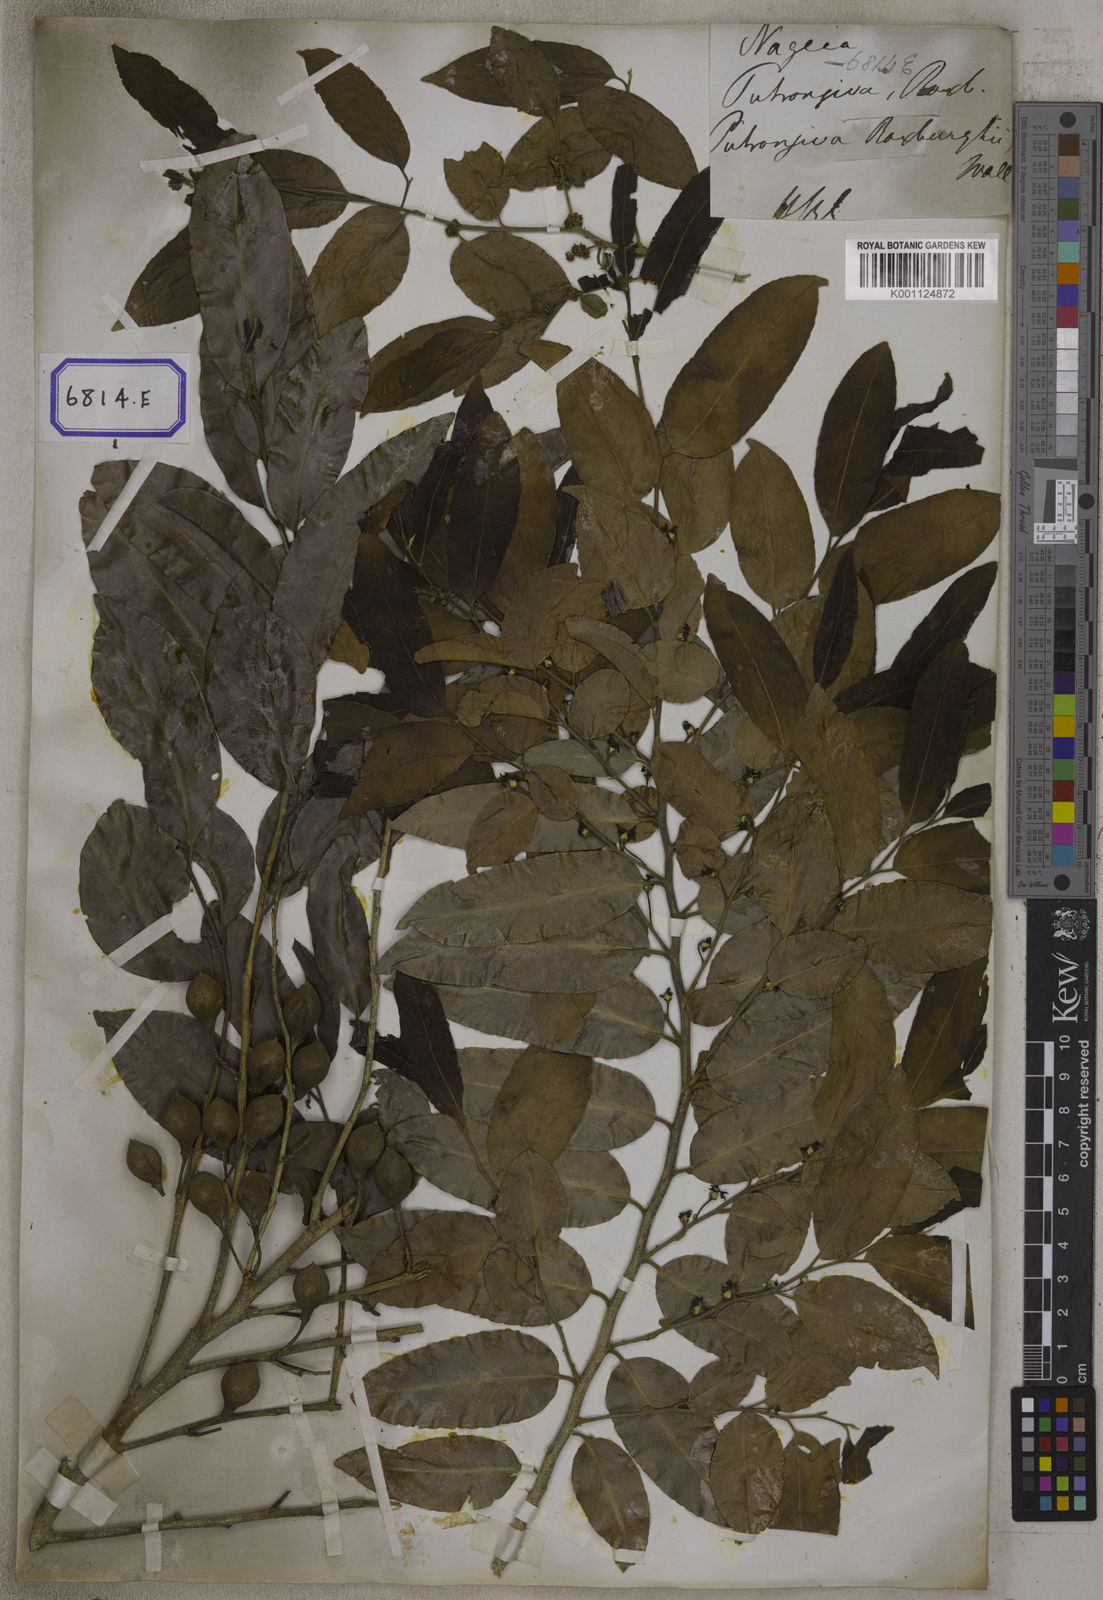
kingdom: Plantae
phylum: Tracheophyta
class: Magnoliopsida
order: Malpighiales
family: Putranjivaceae
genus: Putranjiva
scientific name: Putranjiva roxburghii
